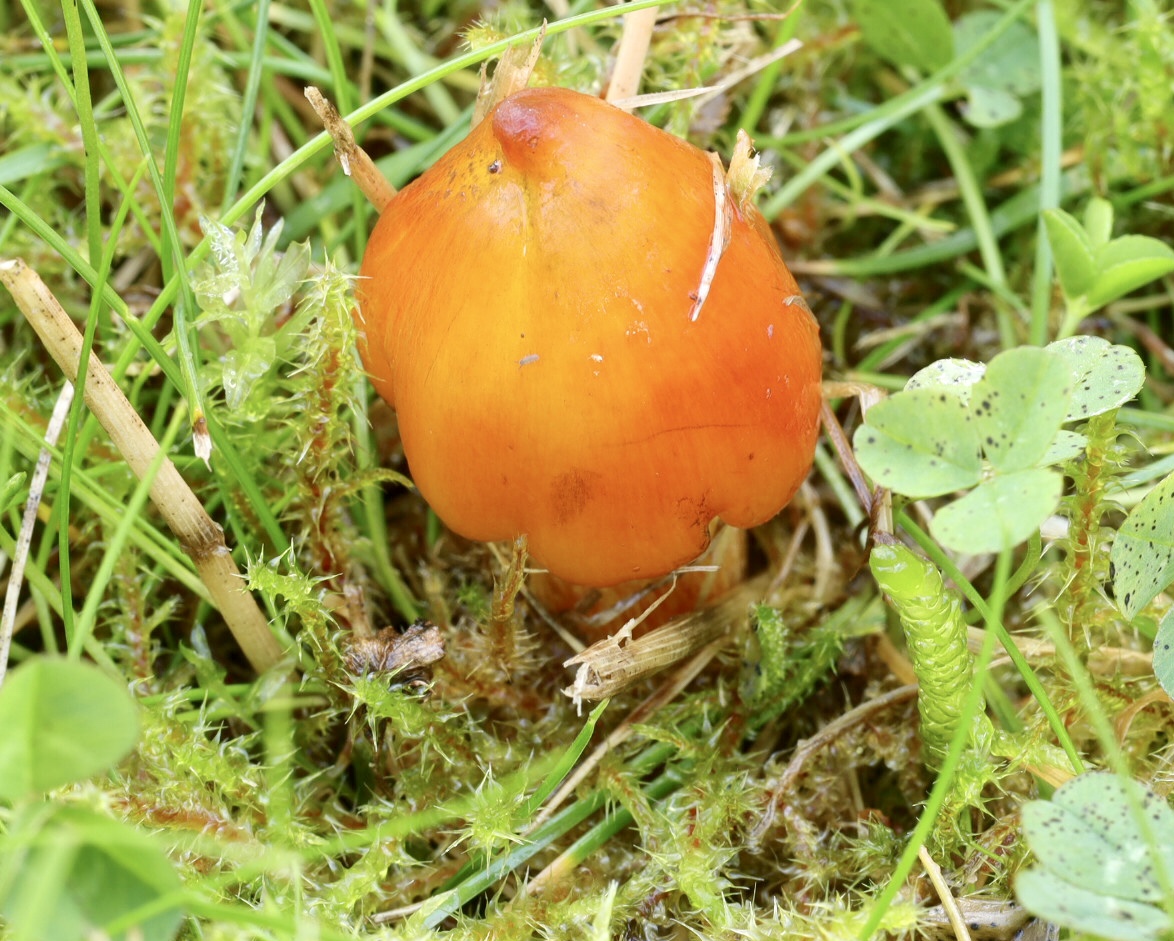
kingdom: Fungi
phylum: Basidiomycota
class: Agaricomycetes
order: Agaricales
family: Hygrophoraceae
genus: Hygrocybe
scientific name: Hygrocybe conica
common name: kegle-vokshat
